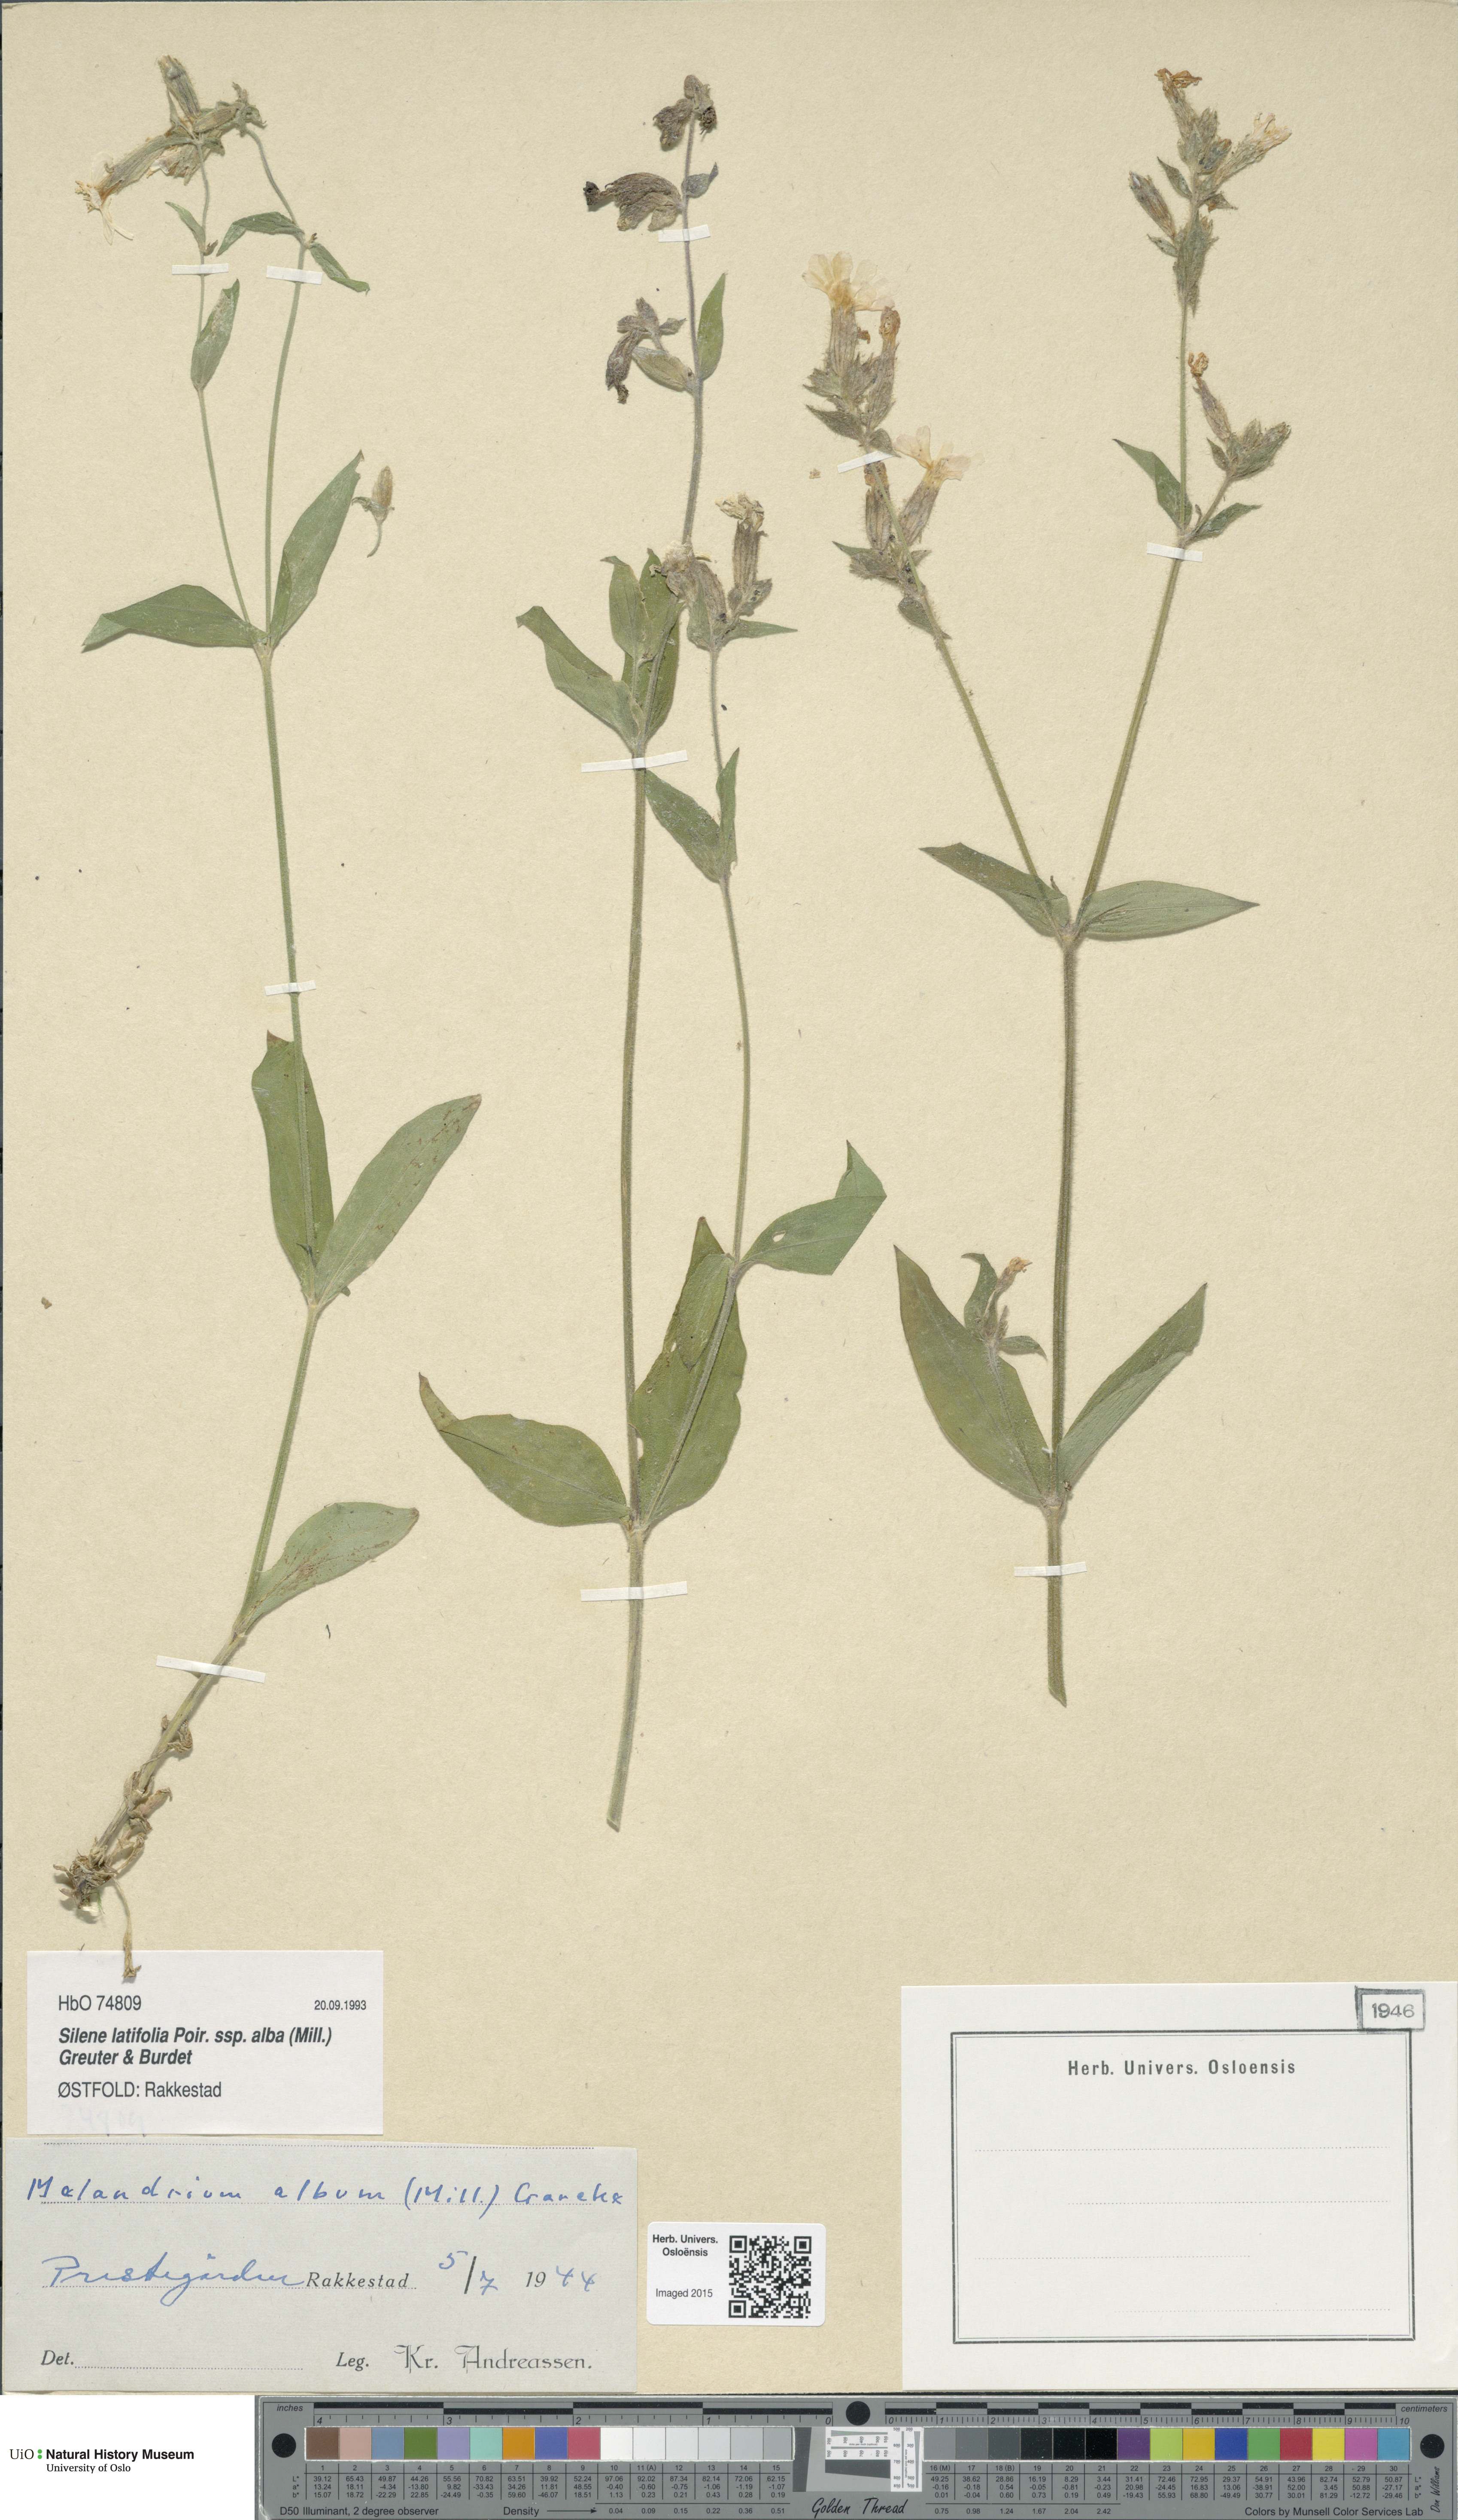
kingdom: Plantae
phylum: Tracheophyta
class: Magnoliopsida
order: Caryophyllales
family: Caryophyllaceae
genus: Silene
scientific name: Silene latifolia
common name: White campion
